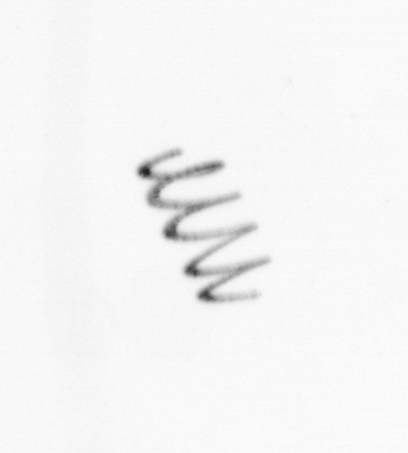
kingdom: Chromista
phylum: Ochrophyta
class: Bacillariophyceae
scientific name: Bacillariophyceae
